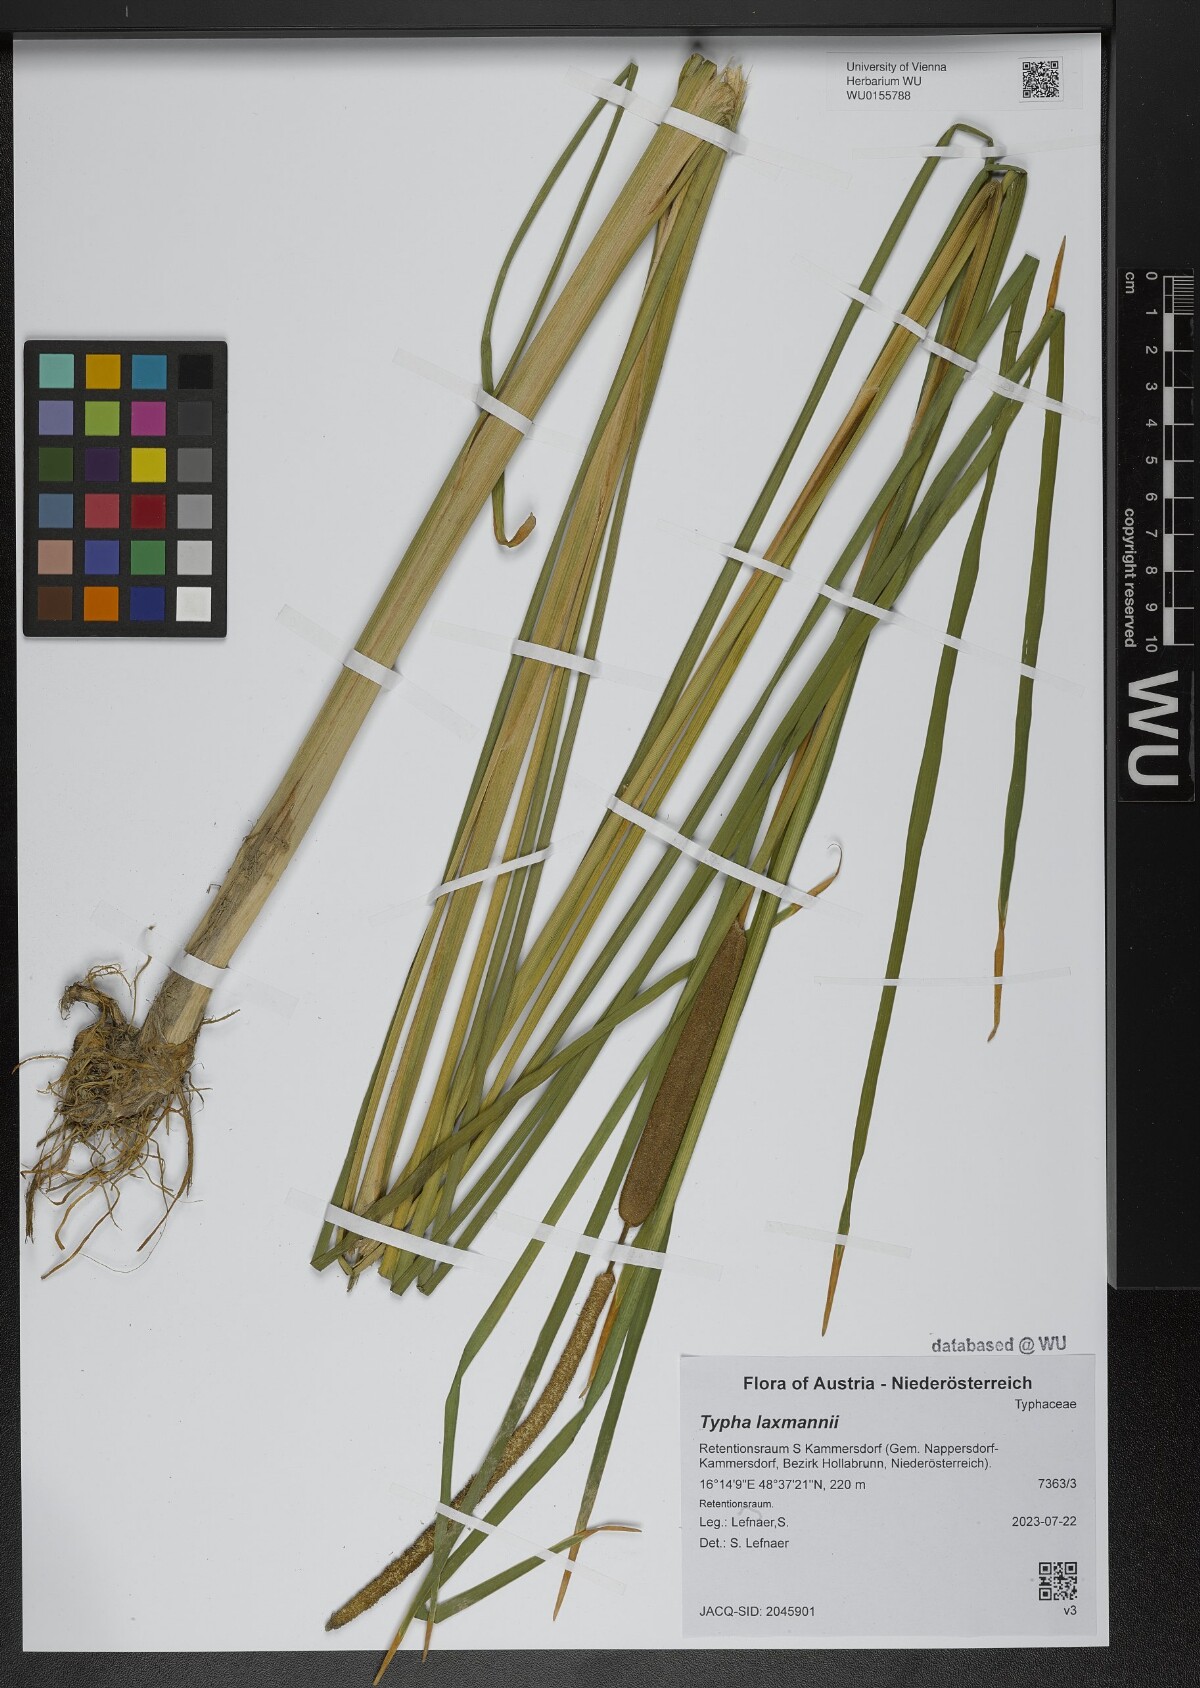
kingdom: Plantae
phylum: Tracheophyta
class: Liliopsida
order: Poales
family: Typhaceae
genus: Typha
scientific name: Typha laxmannii
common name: Laxman’s bulrush
